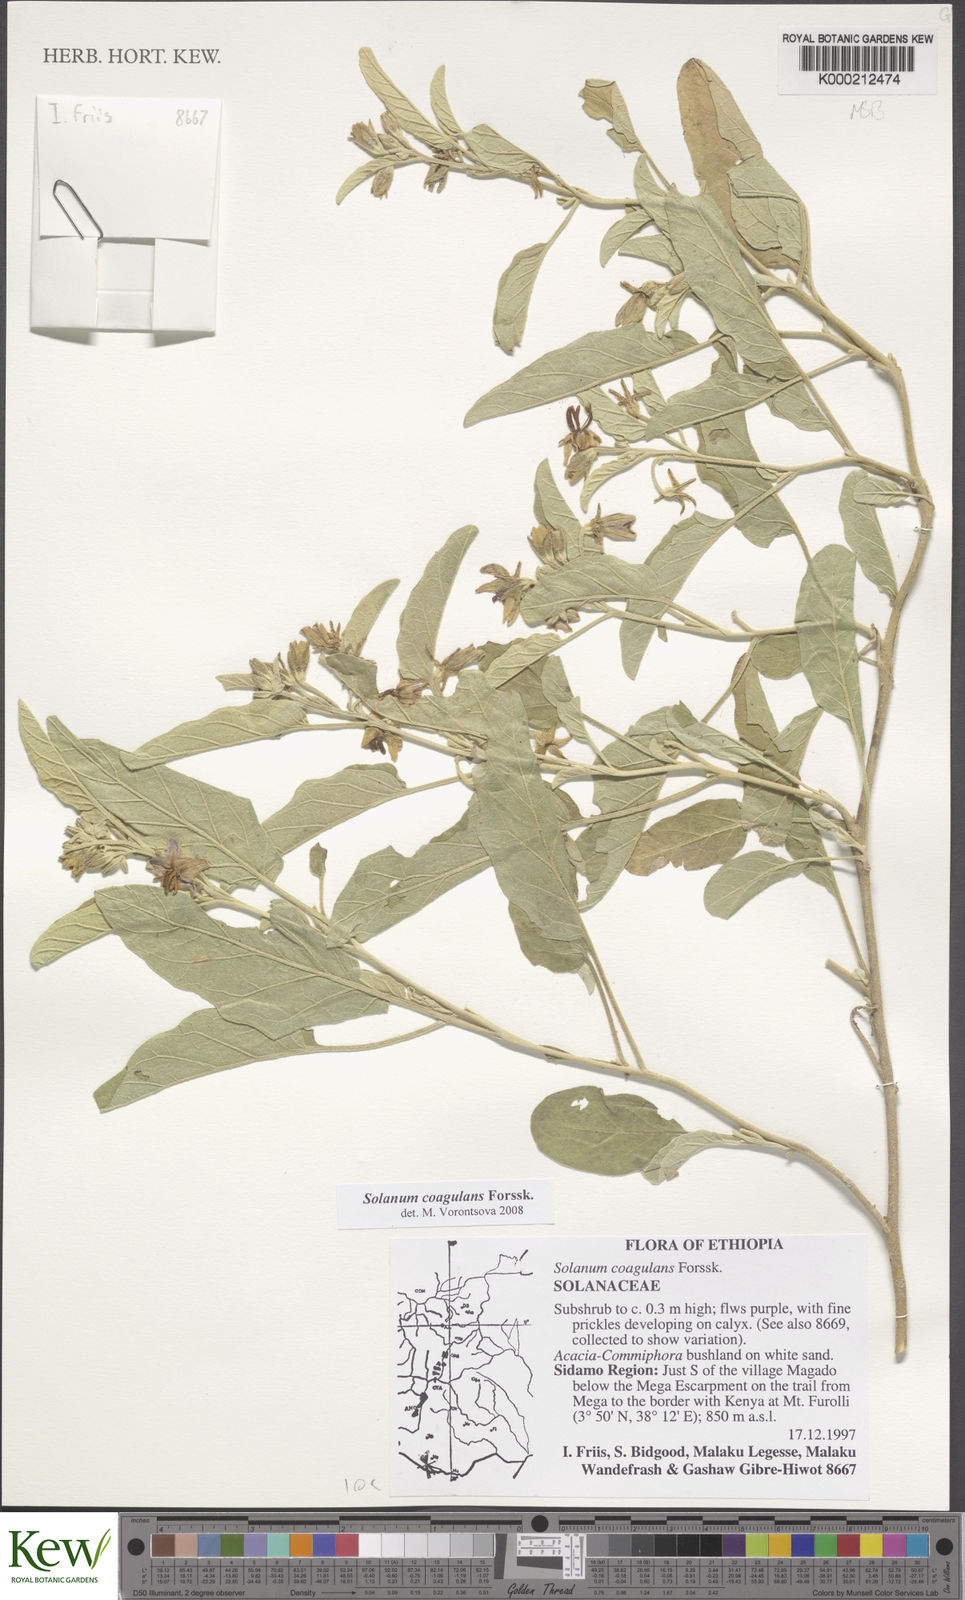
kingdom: Plantae
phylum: Tracheophyta
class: Magnoliopsida
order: Solanales
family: Solanaceae
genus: Solanum
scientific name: Solanum coagulans
